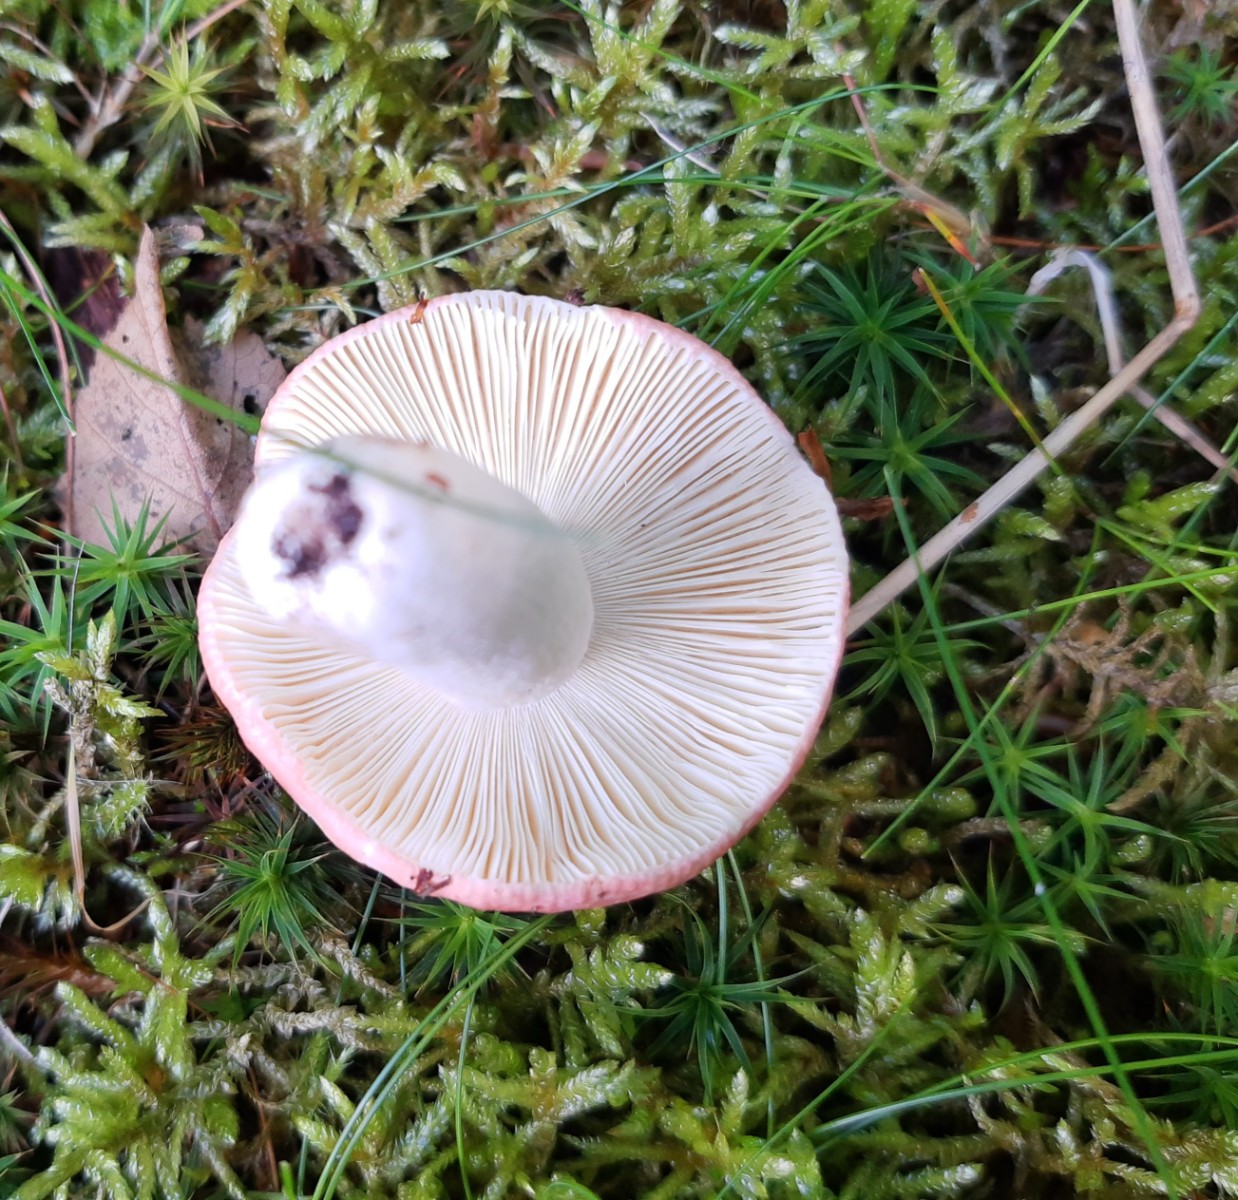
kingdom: Fungi
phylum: Basidiomycota
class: Agaricomycetes
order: Russulales
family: Russulaceae
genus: Russula
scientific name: Russula silvestris
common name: mellemstor gift-skørhat
